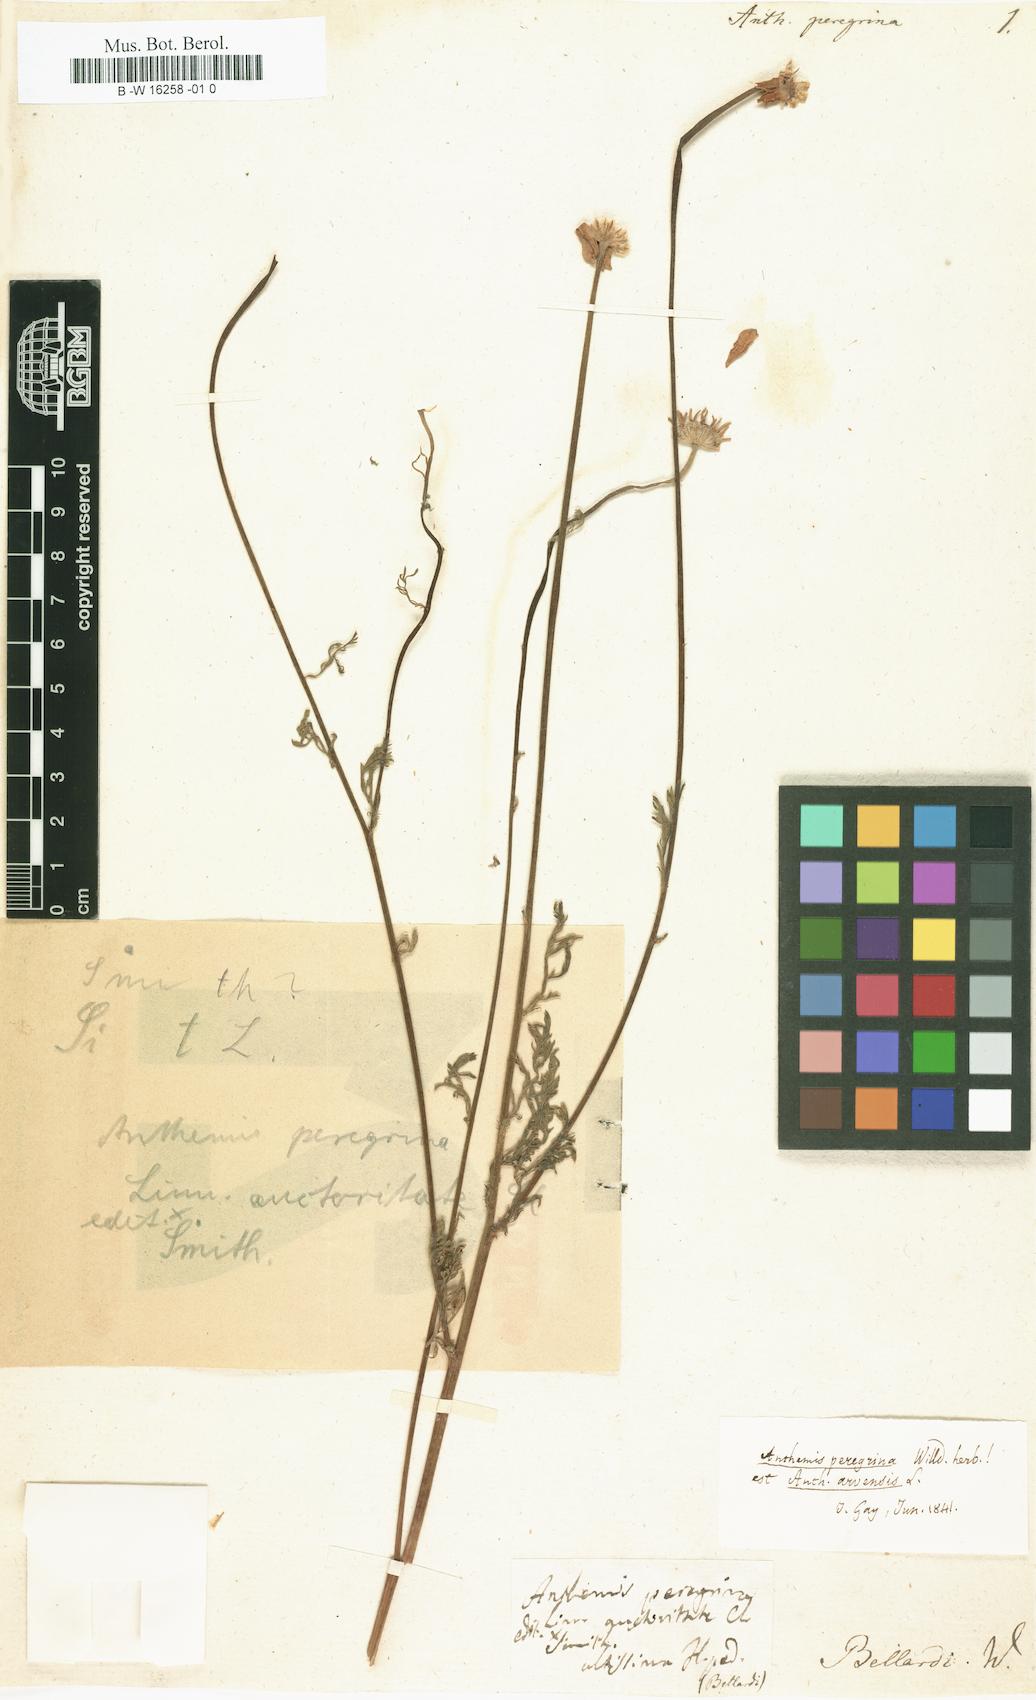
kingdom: Plantae
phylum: Tracheophyta
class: Magnoliopsida
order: Asterales
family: Asteraceae
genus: Anthemis
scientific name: Anthemis
